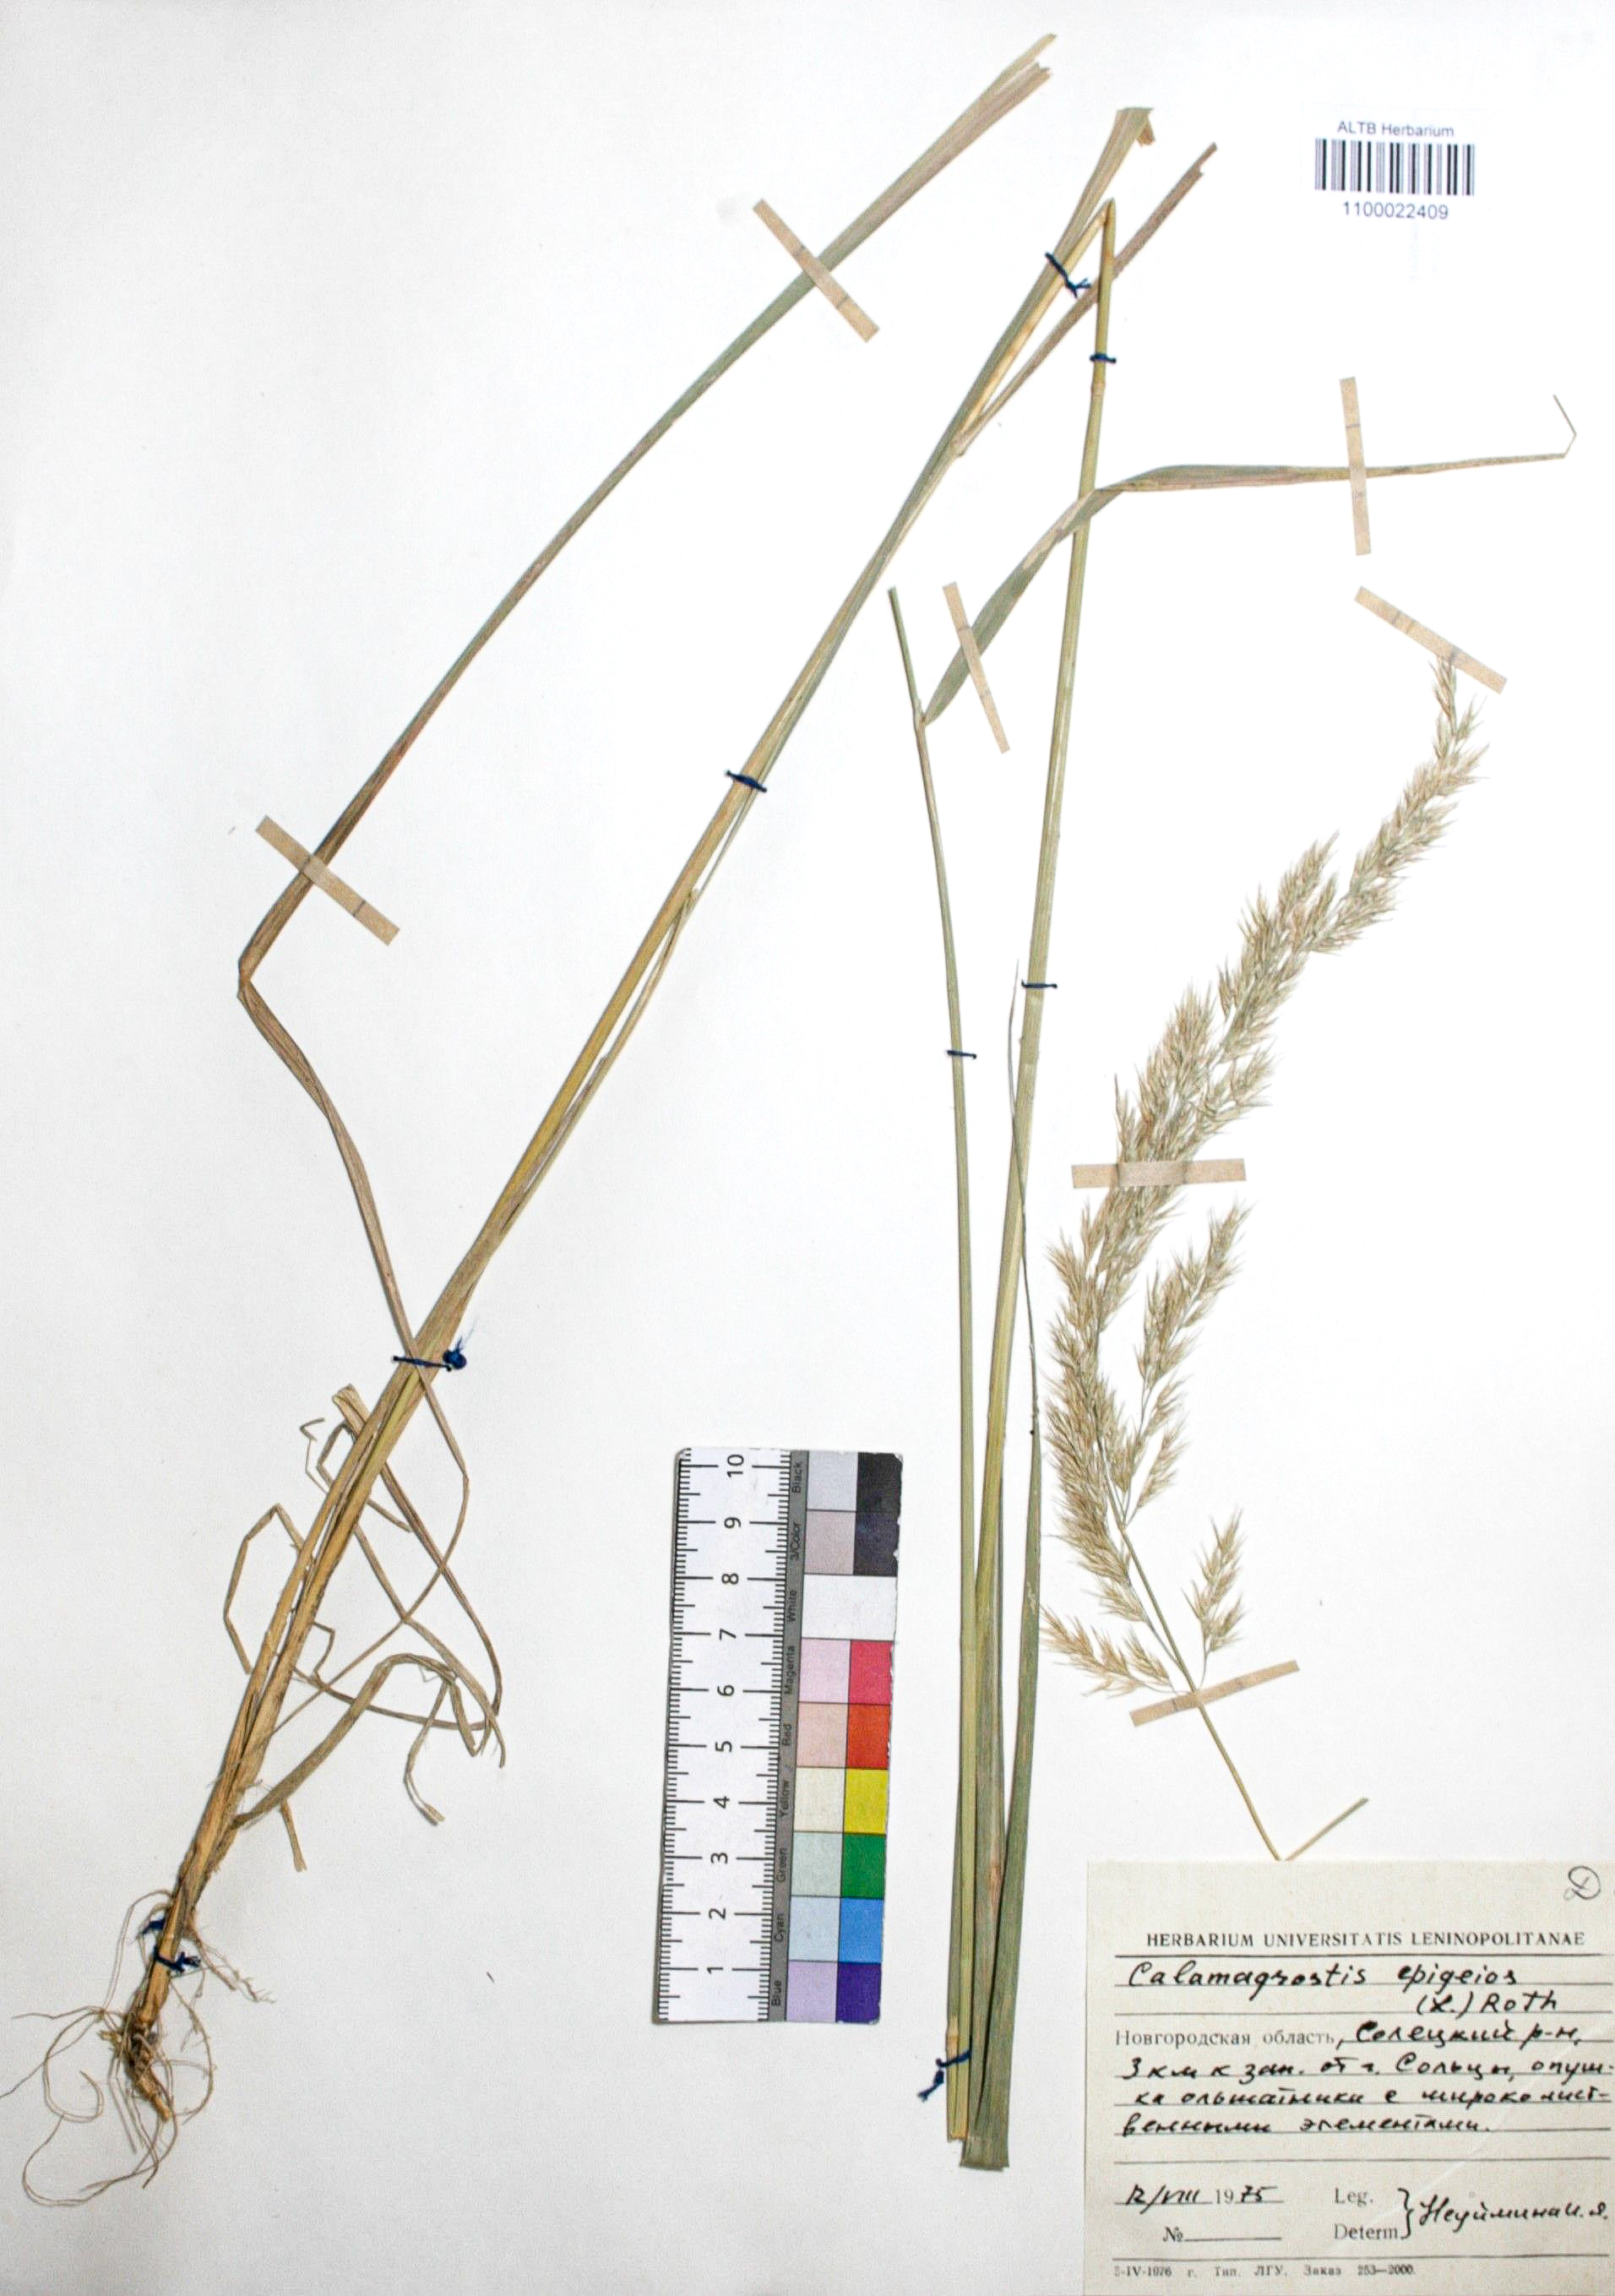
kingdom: Plantae
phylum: Tracheophyta
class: Liliopsida
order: Poales
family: Poaceae
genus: Calamagrostis
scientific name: Calamagrostis epigejos
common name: Wood small-reed
